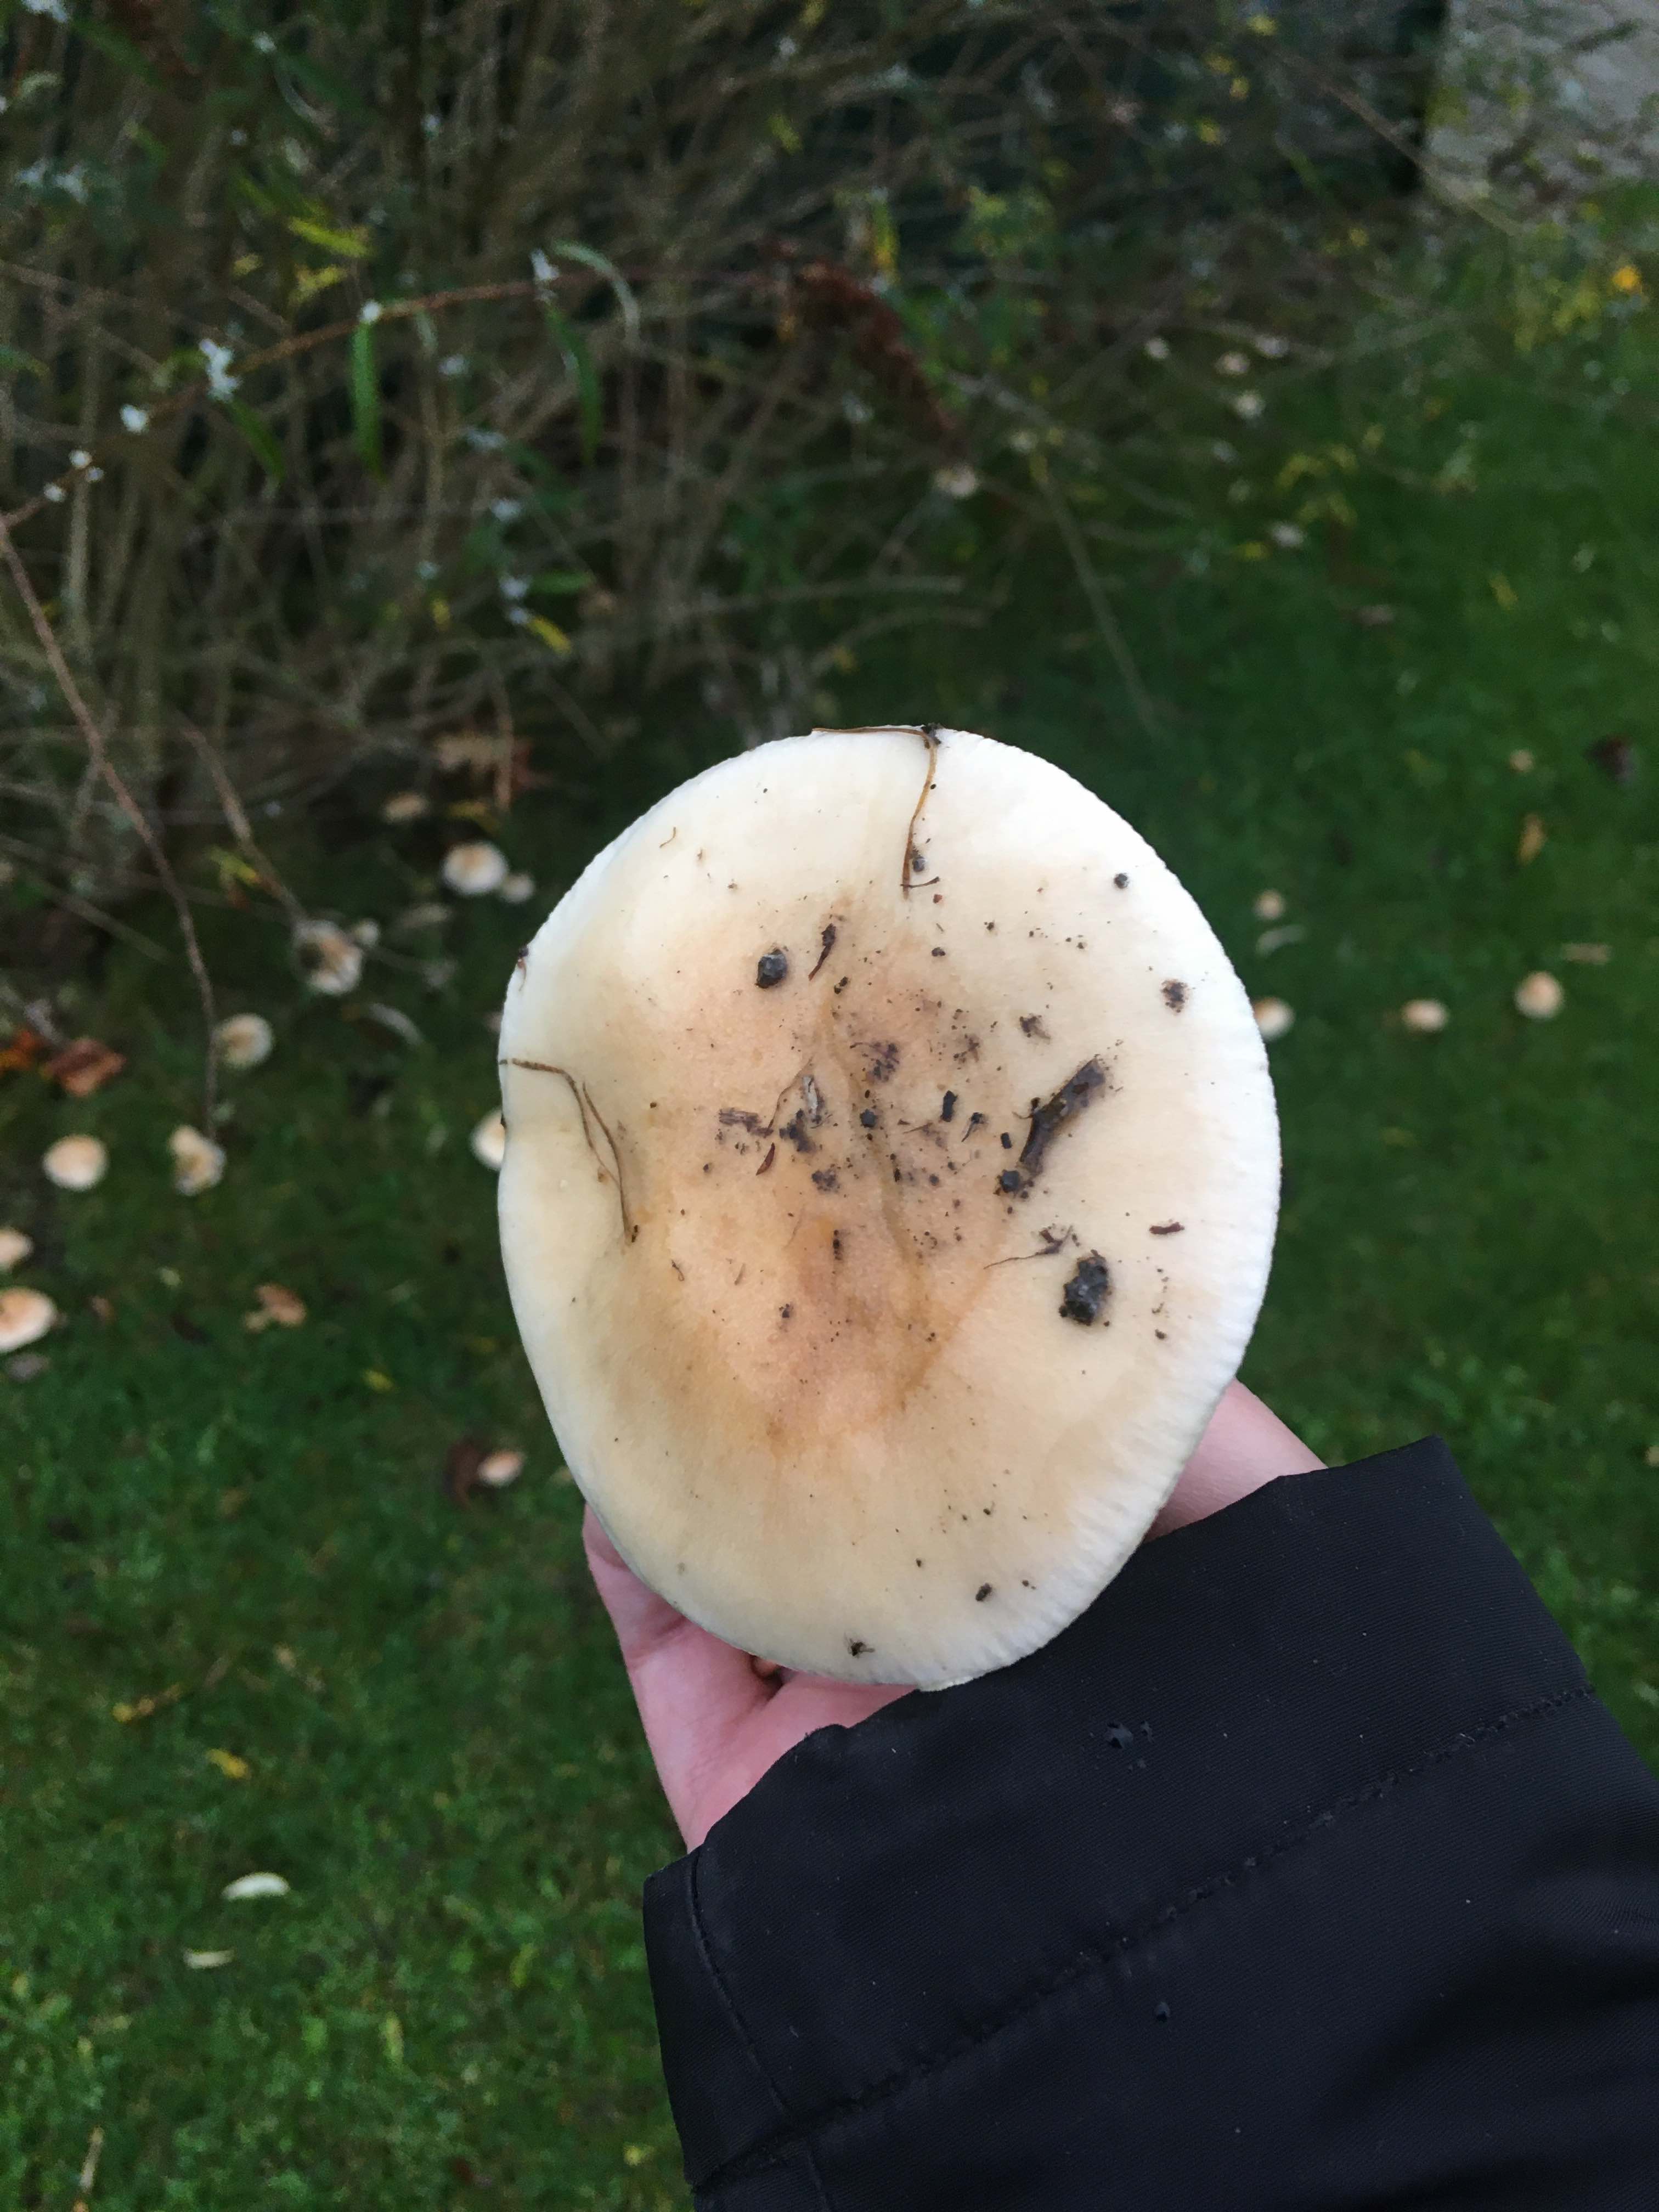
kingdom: Fungi
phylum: Basidiomycota
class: Agaricomycetes
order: Agaricales
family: Hymenogastraceae
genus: Hebeloma
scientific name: Hebeloma
